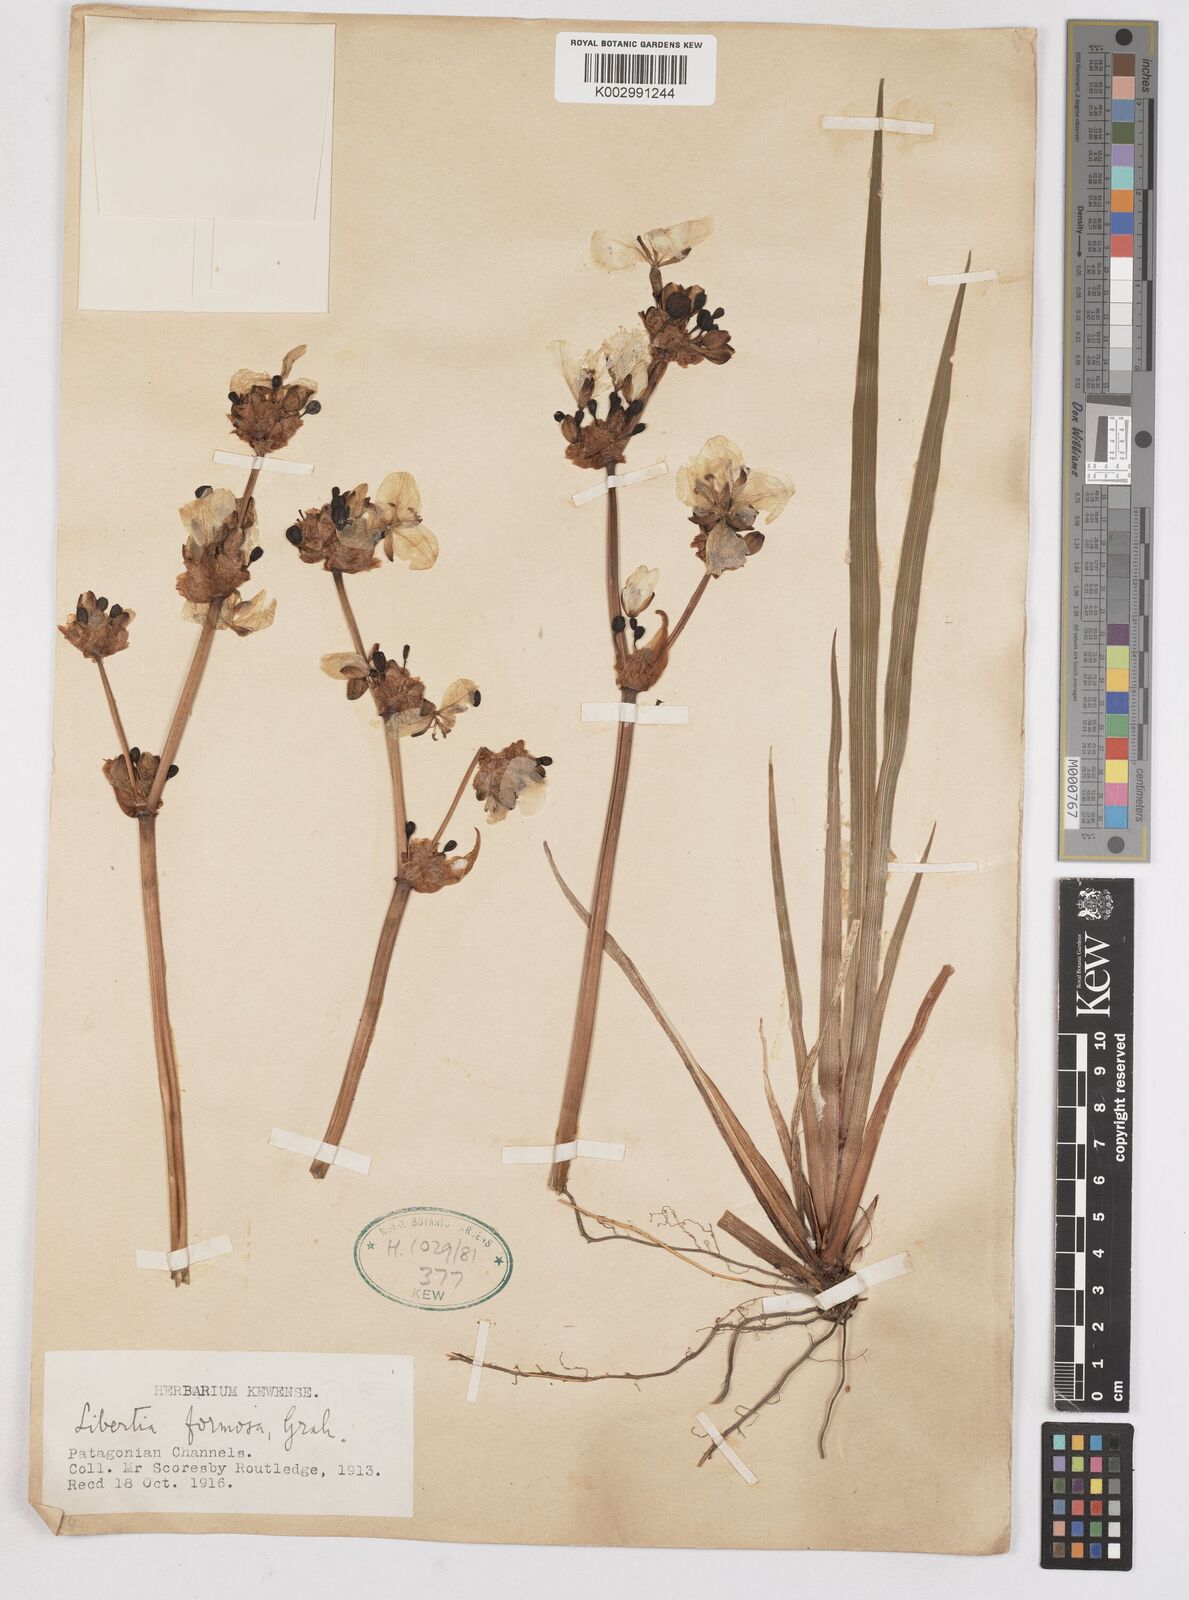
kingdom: Plantae
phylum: Tracheophyta
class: Liliopsida
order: Asparagales
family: Iridaceae
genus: Libertia
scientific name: Libertia chilensis
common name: Satin flower
